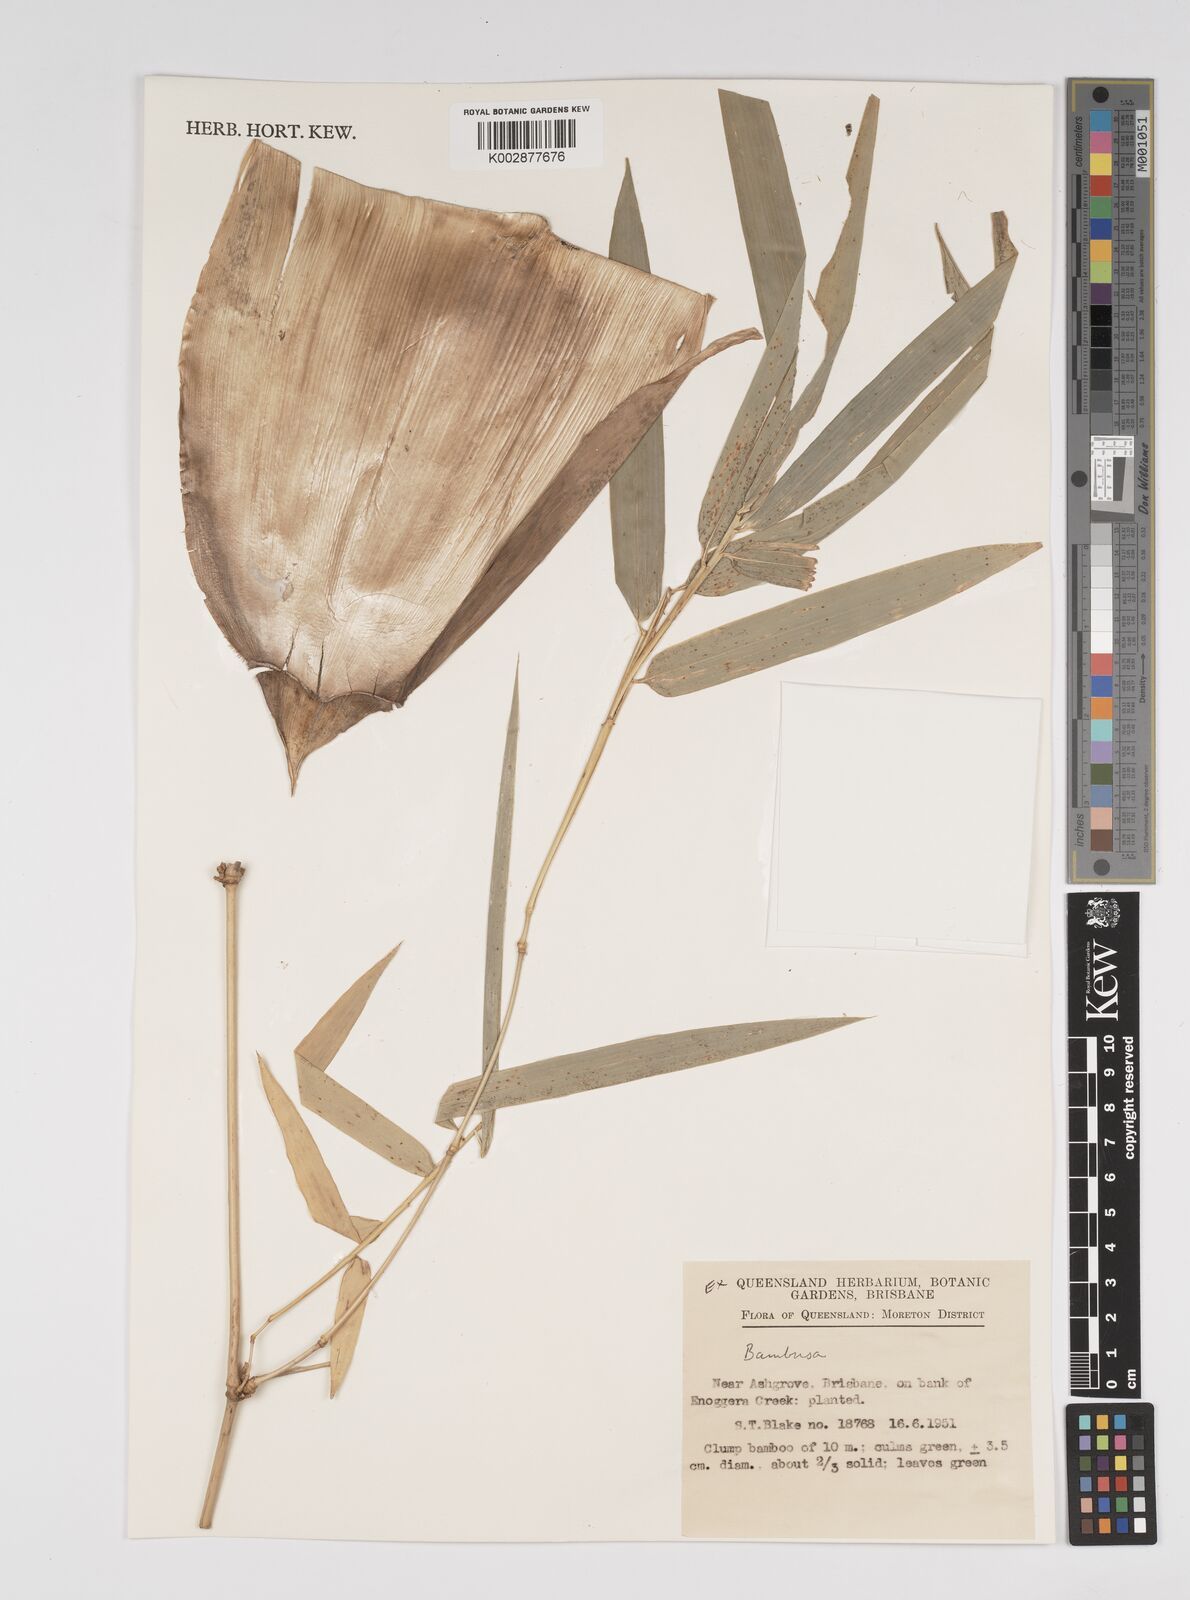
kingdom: Plantae
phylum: Tracheophyta
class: Liliopsida
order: Poales
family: Poaceae
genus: Bambusa
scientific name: Bambusa
